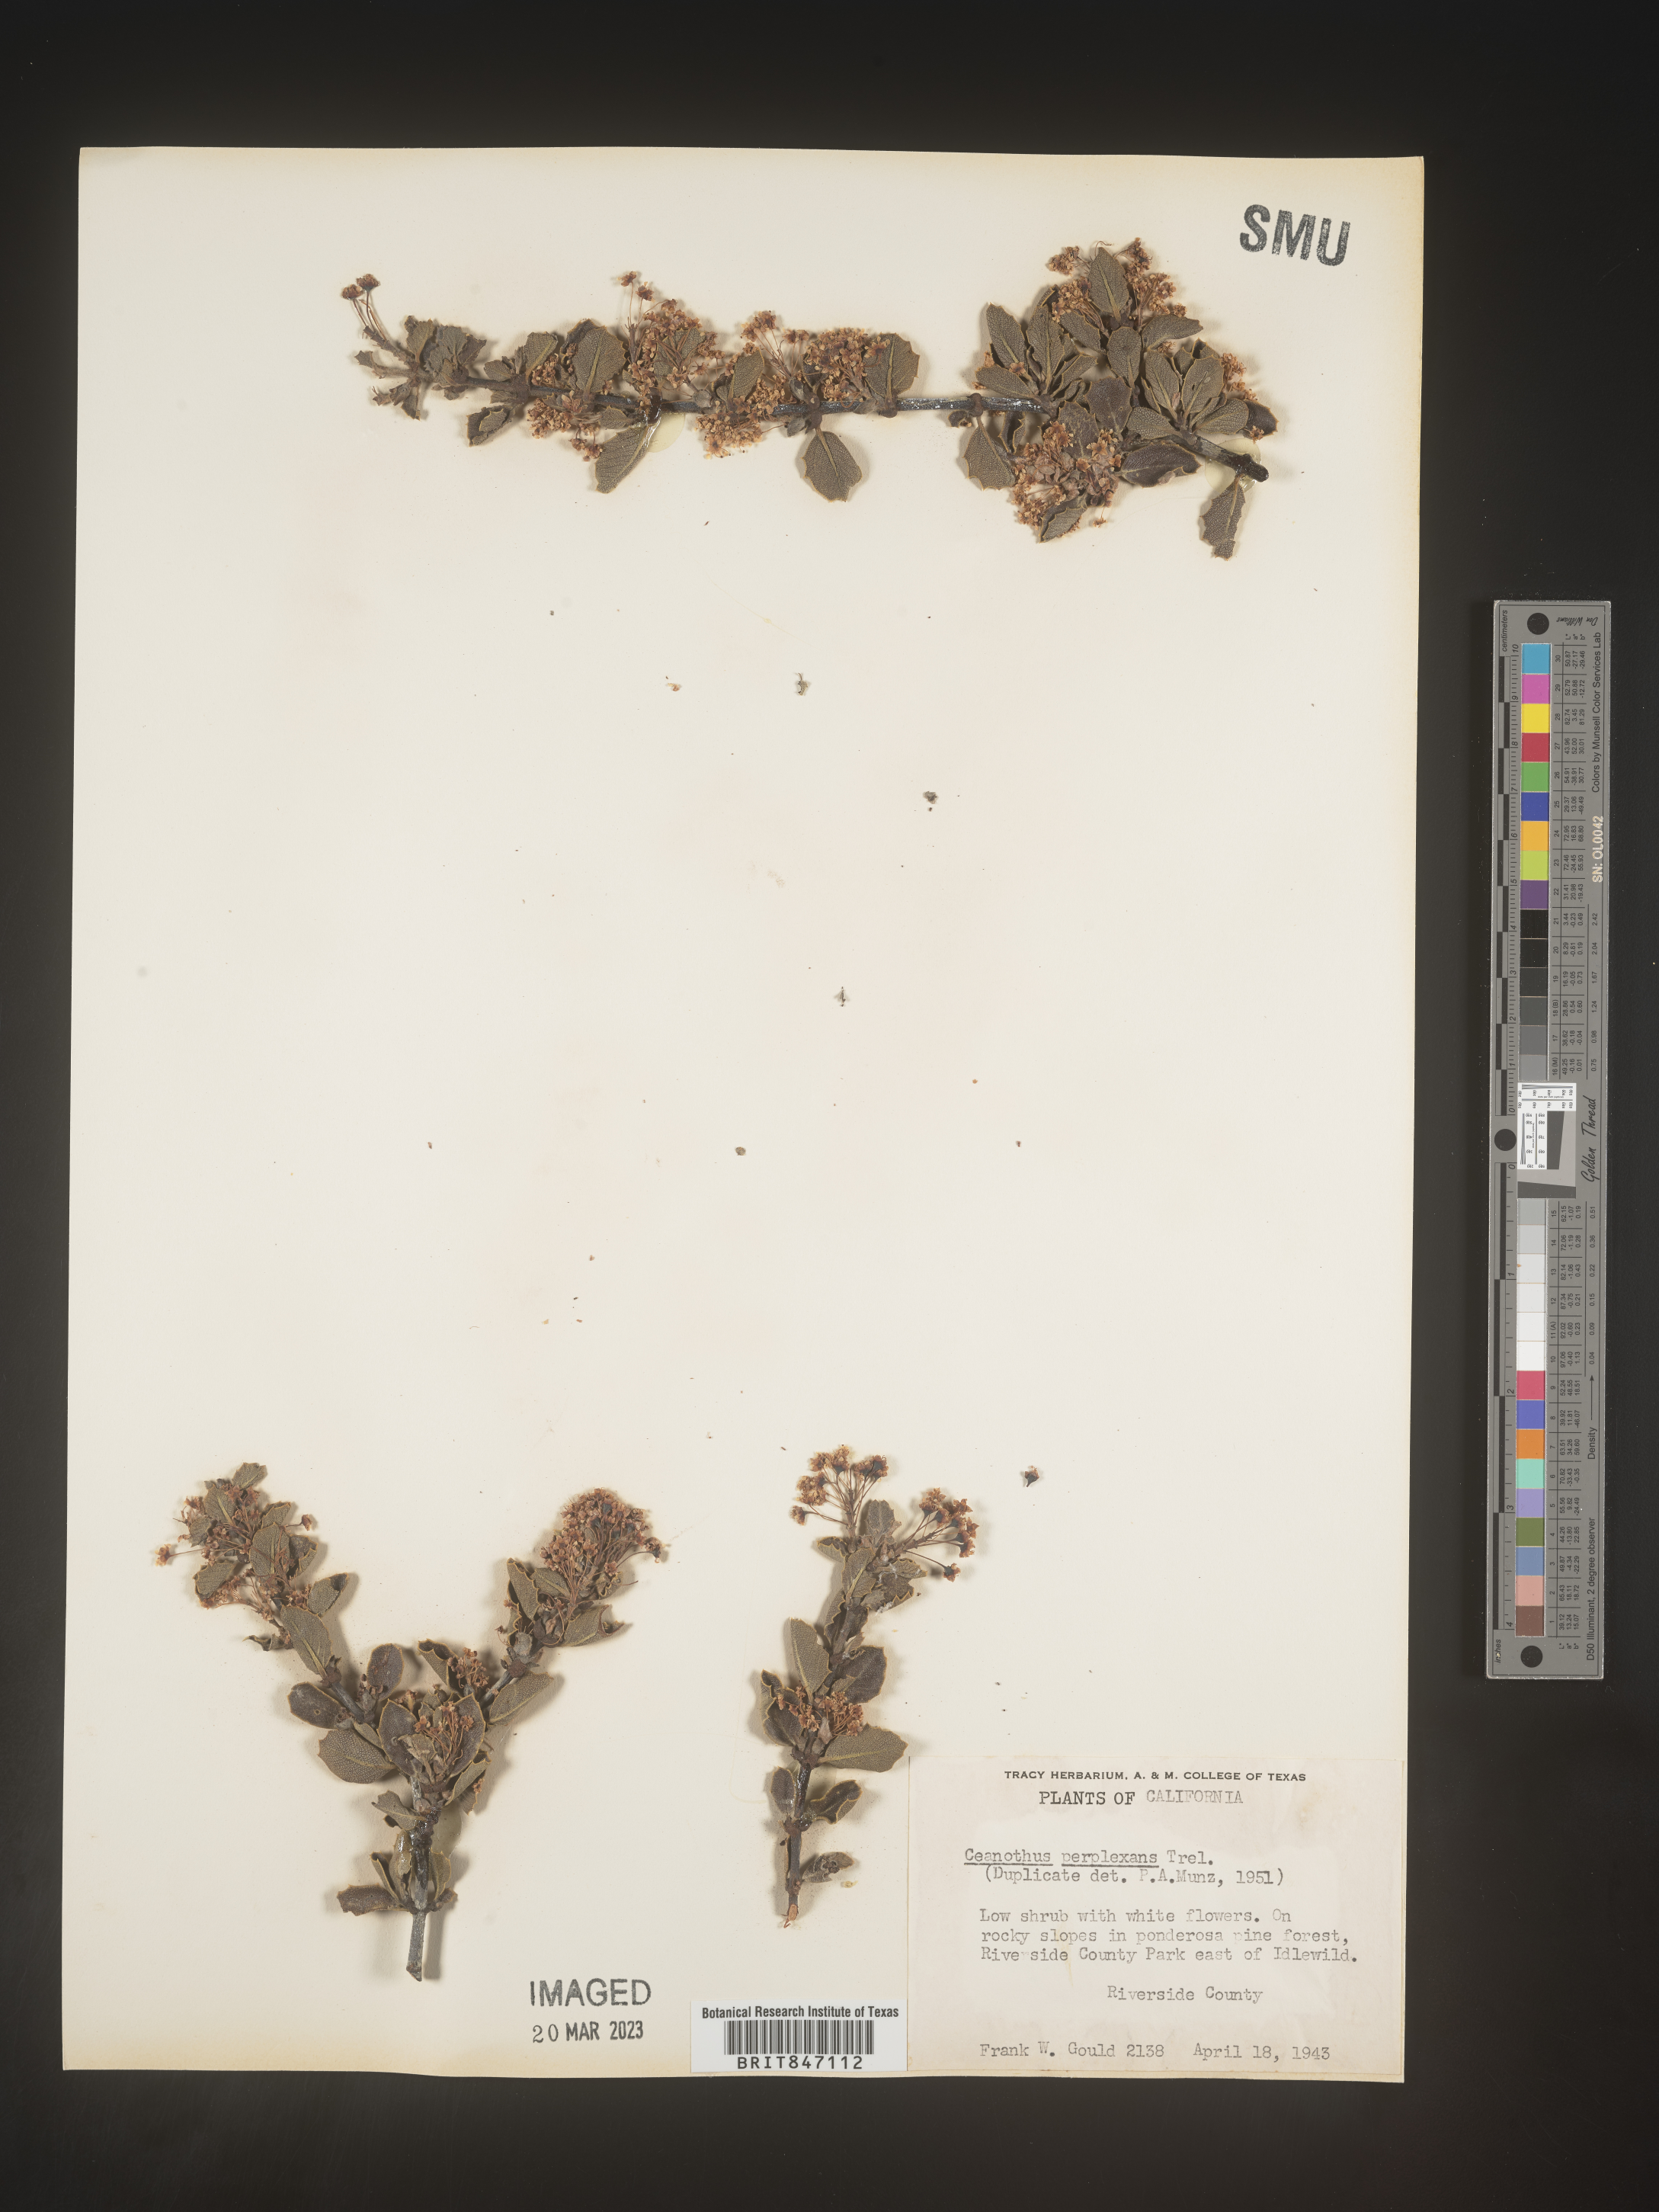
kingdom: Plantae
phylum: Tracheophyta
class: Magnoliopsida
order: Rosales
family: Rhamnaceae
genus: Ceanothus
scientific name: Ceanothus
